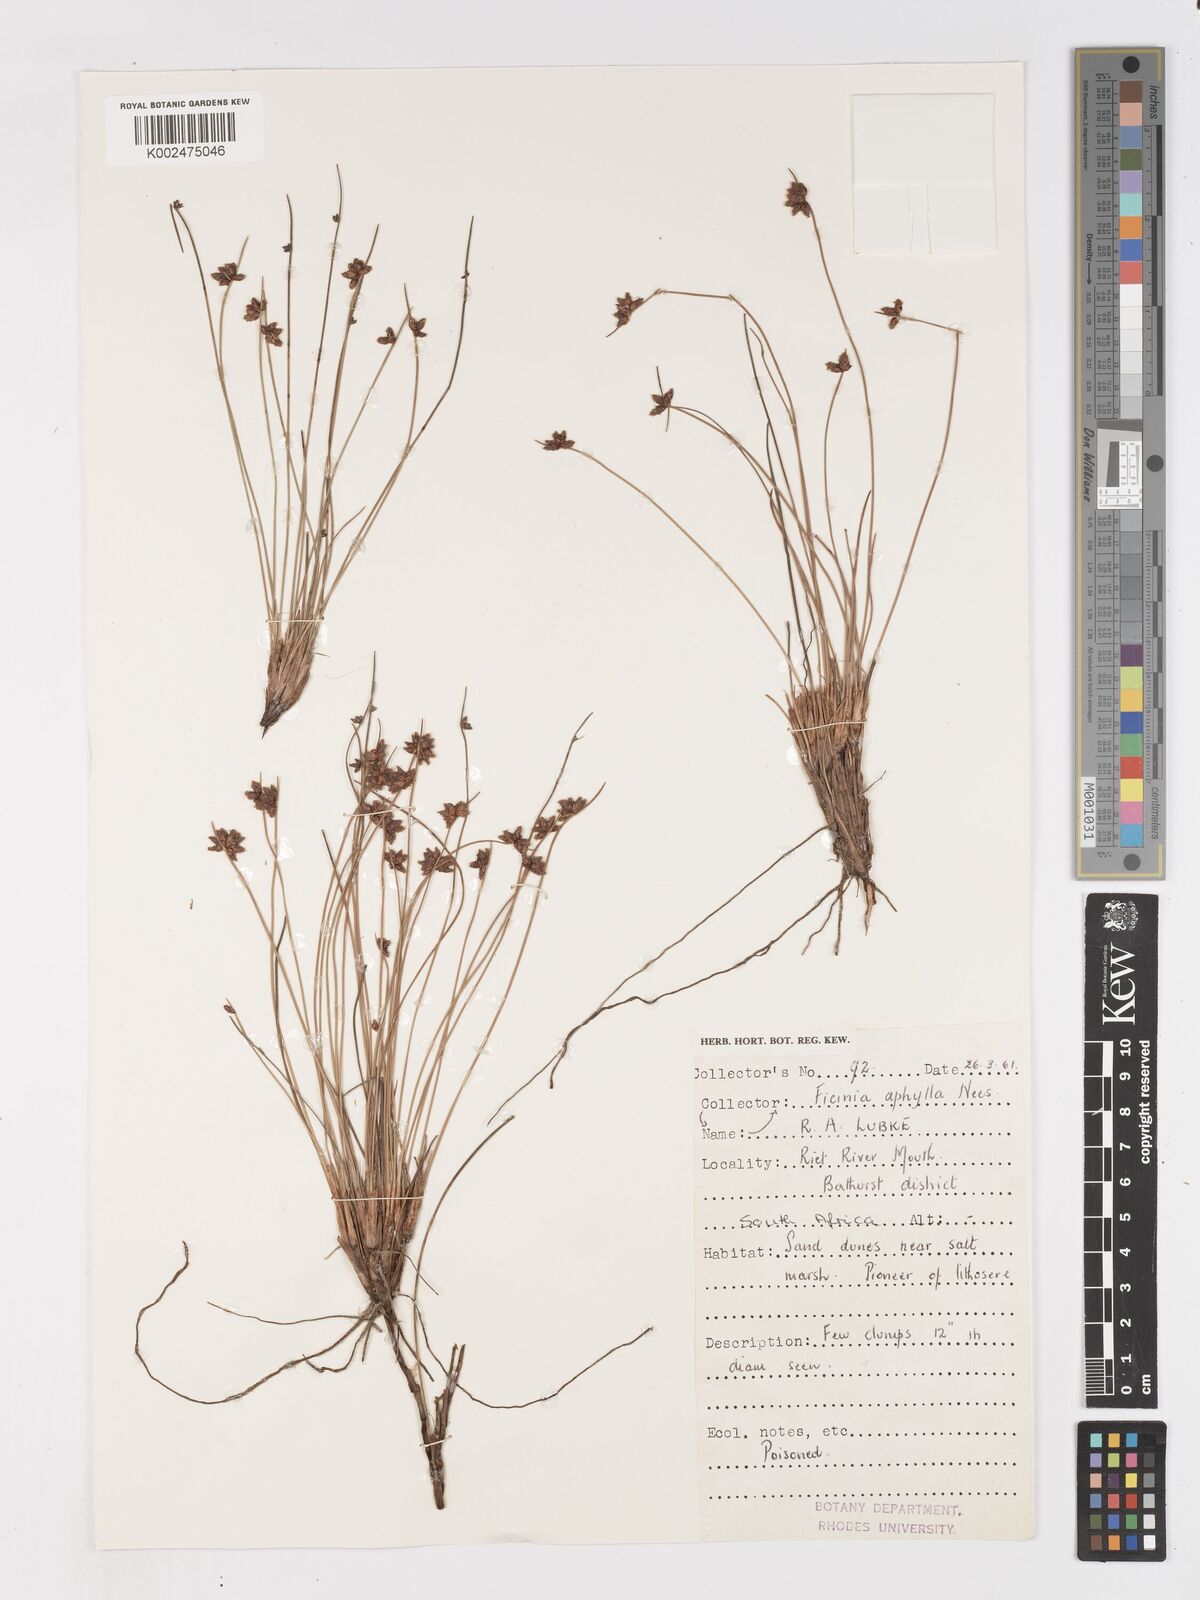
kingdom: Plantae
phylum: Tracheophyta
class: Liliopsida
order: Poales
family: Cyperaceae
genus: Ficinia
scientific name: Ficinia lateralis
